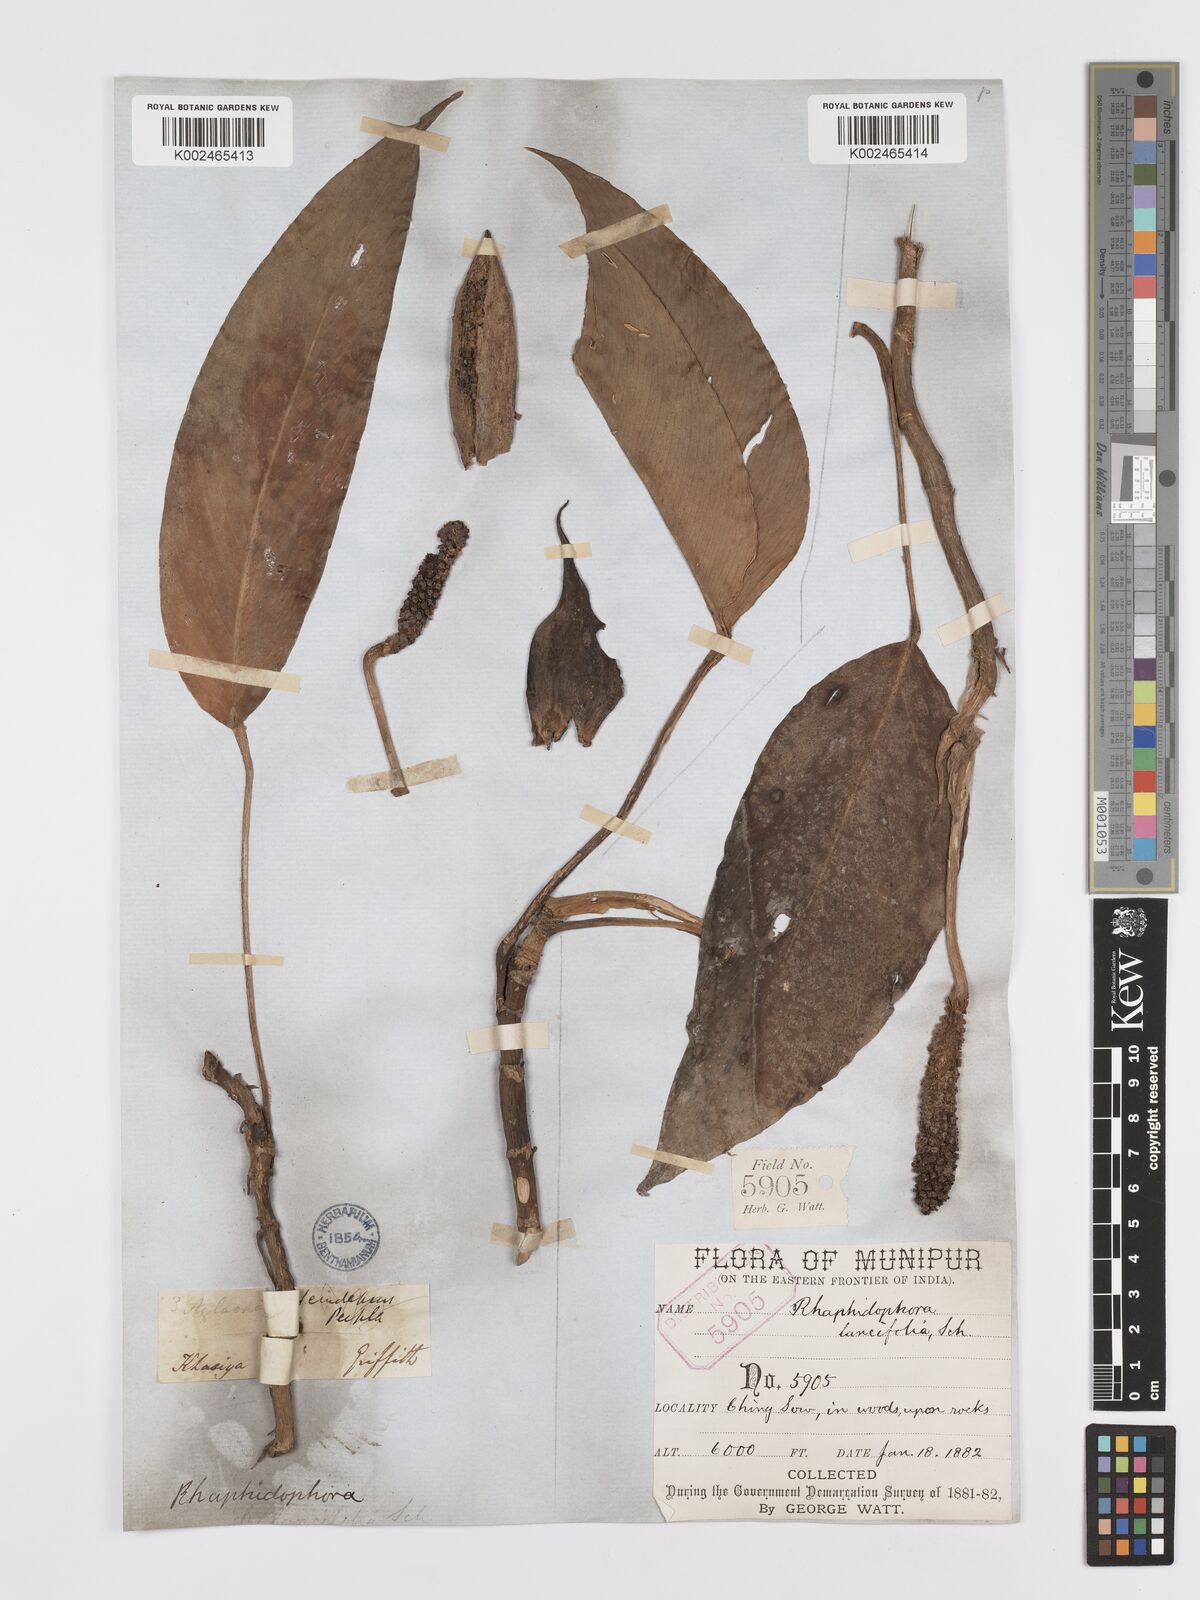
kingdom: Plantae
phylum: Tracheophyta
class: Liliopsida
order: Alismatales
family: Araceae
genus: Rhaphidophora
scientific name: Rhaphidophora peepla
